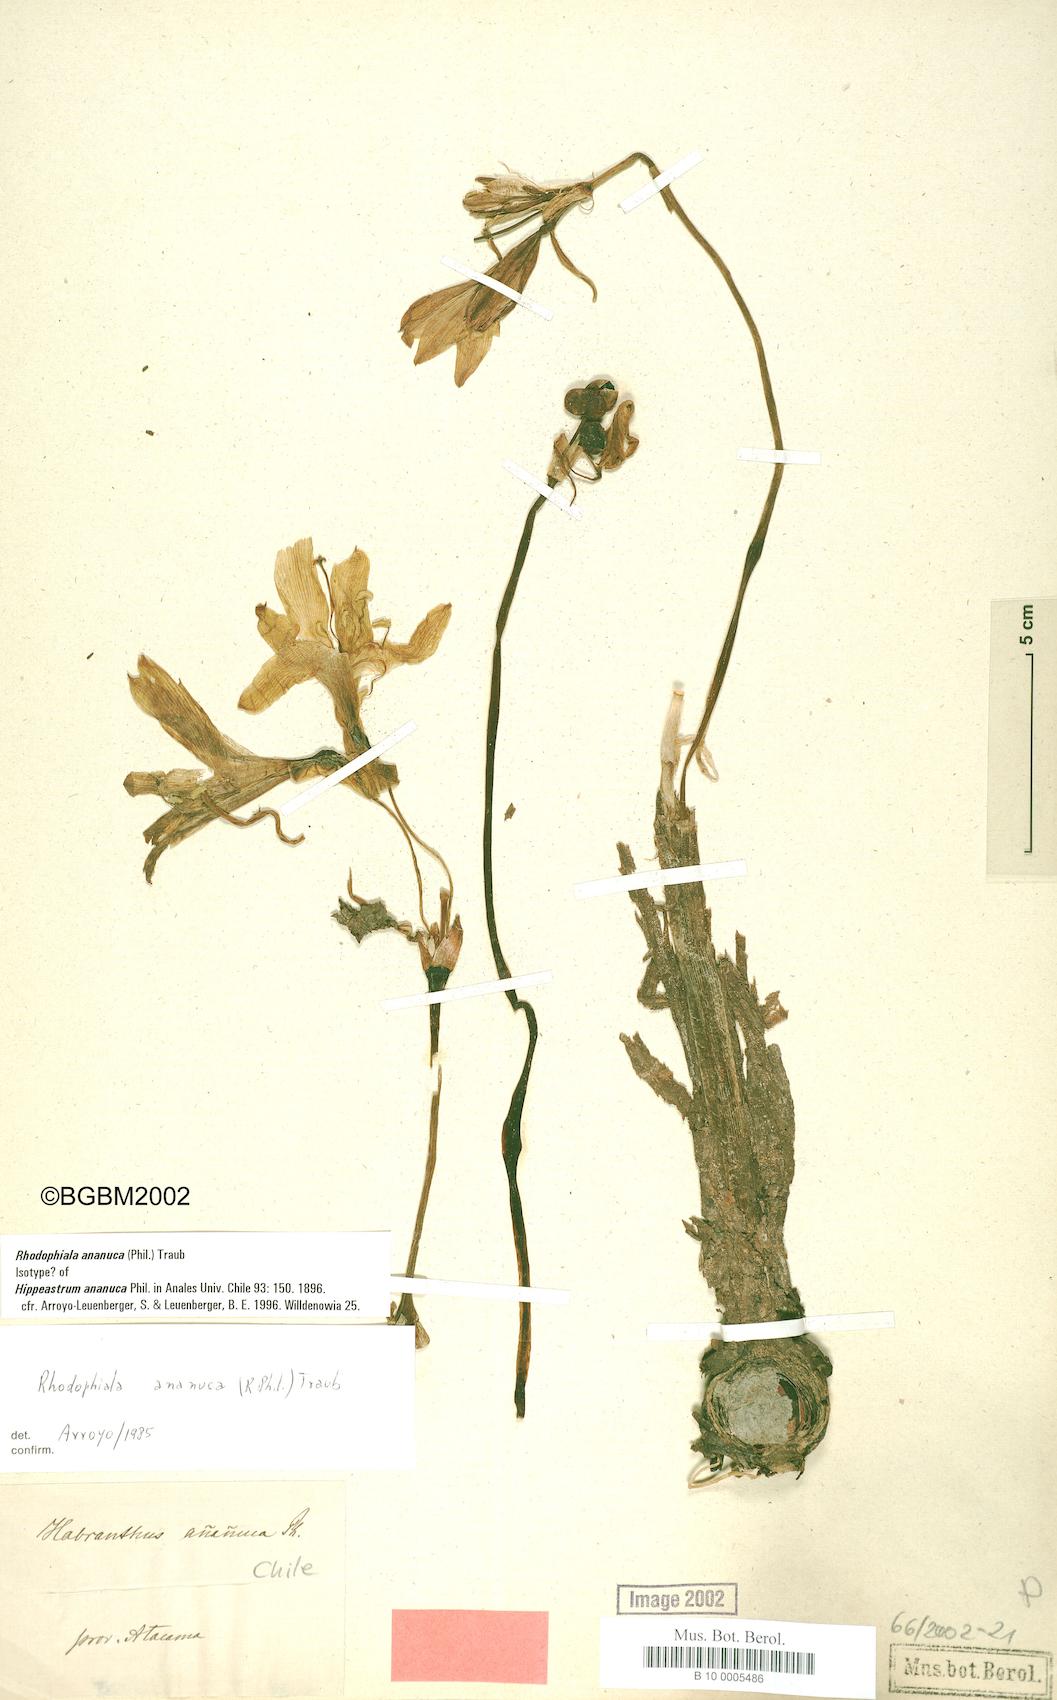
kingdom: Plantae
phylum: Tracheophyta
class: Liliopsida
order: Asparagales
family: Amaryllidaceae
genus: Zephyranthes
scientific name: Zephyranthes ananuca
